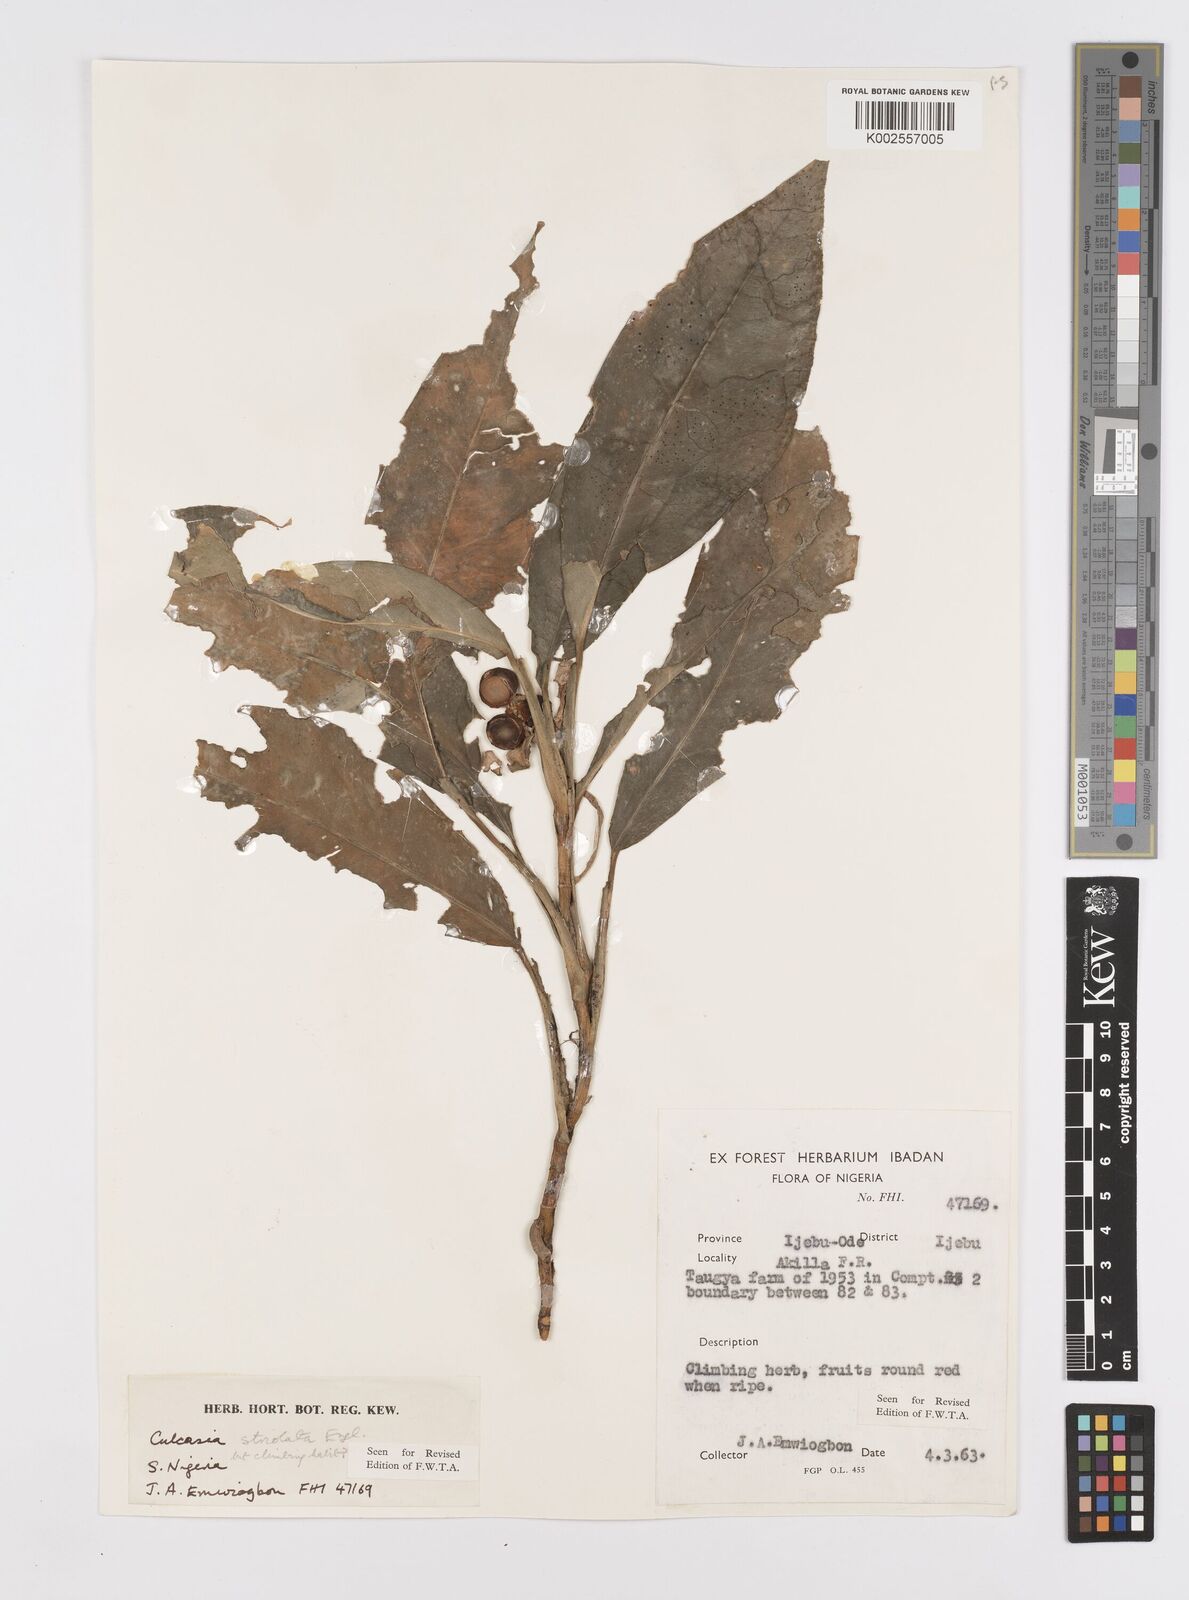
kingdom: Plantae
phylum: Tracheophyta
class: Liliopsida
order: Alismatales
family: Araceae
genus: Culcasia
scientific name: Culcasia striolata
